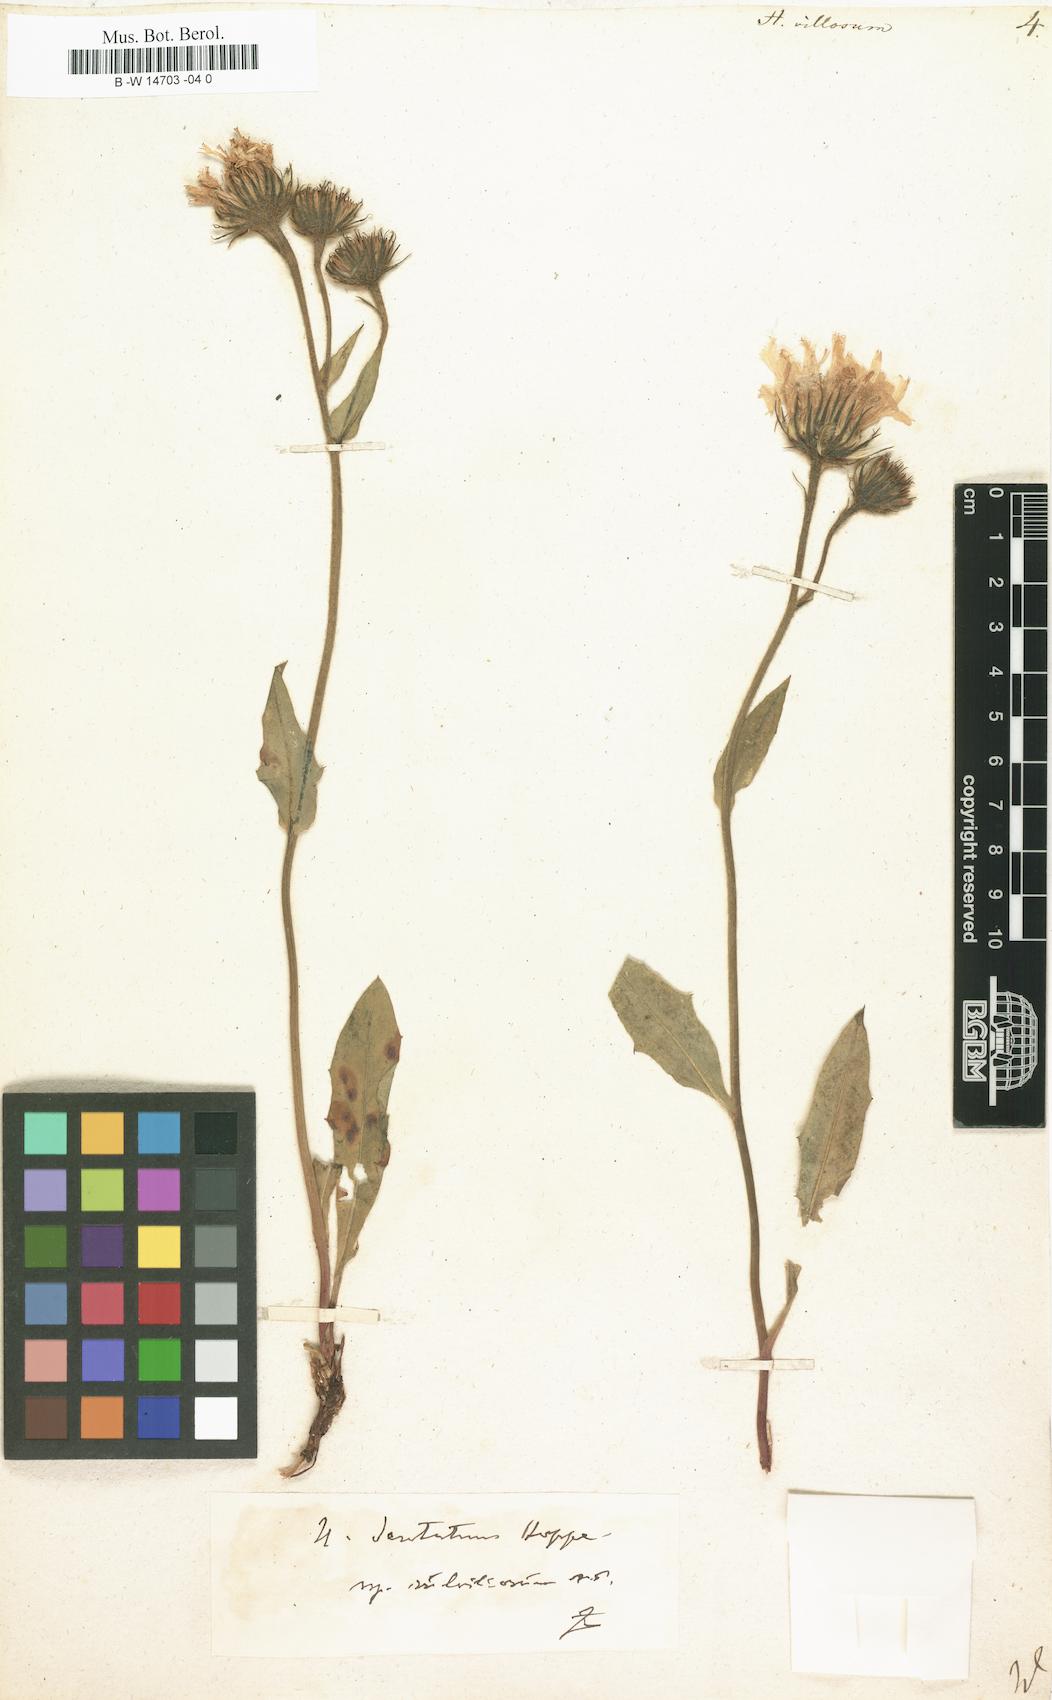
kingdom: Plantae
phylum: Tracheophyta
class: Magnoliopsida
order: Asterales
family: Asteraceae
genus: Hieracium
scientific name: Hieracium villosum
